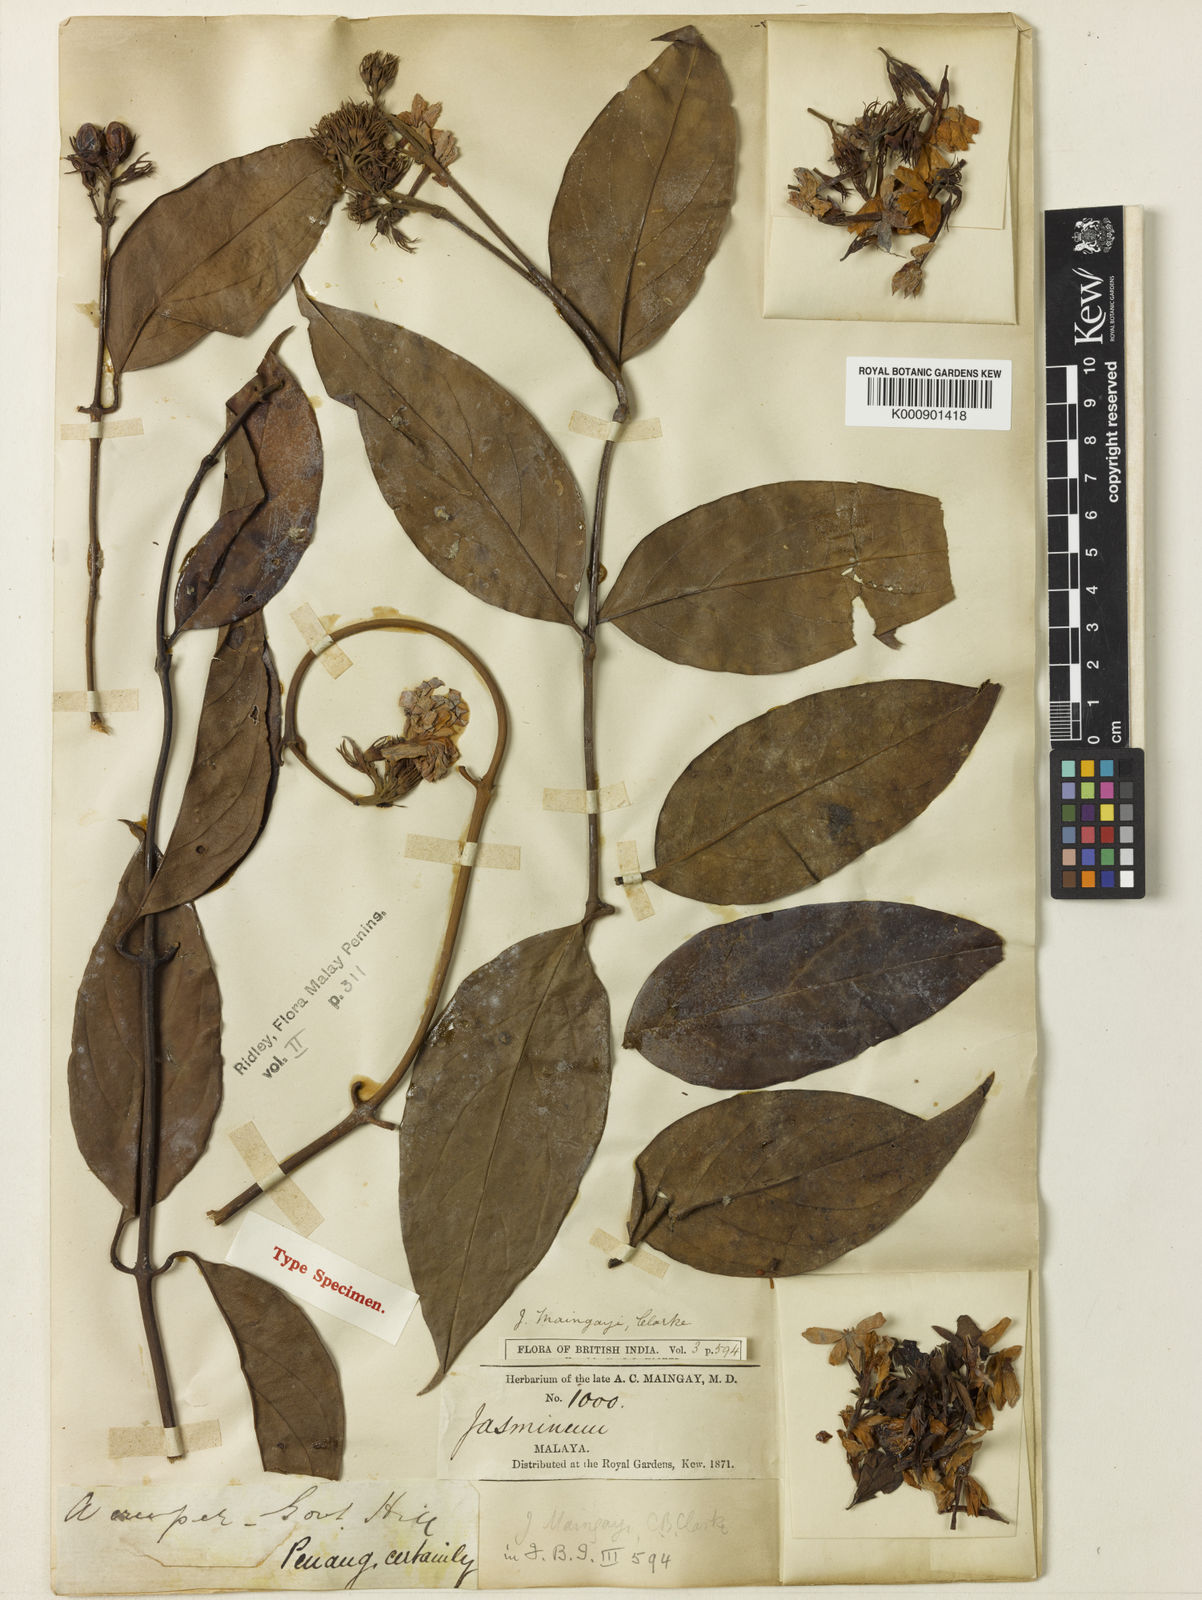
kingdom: Plantae
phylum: Tracheophyta
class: Magnoliopsida
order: Lamiales
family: Oleaceae
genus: Jasminum
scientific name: Jasminum maingayi
